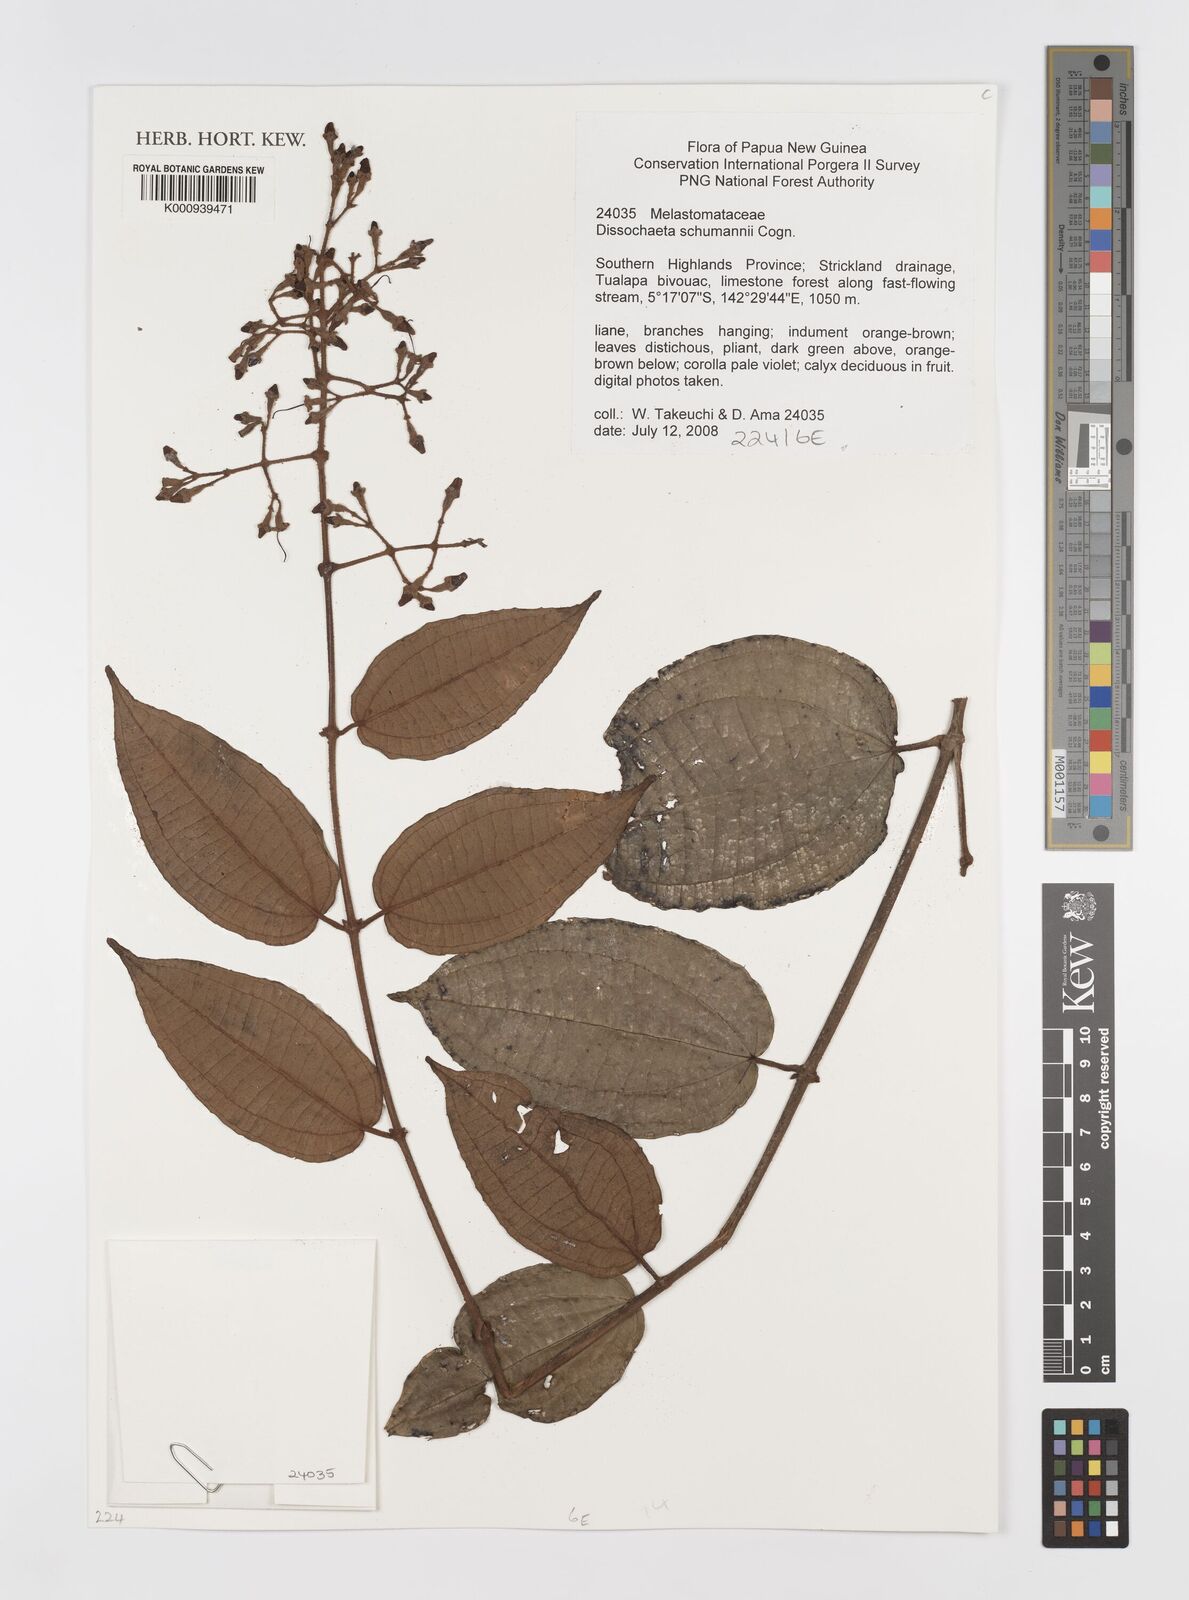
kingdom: Plantae
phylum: Tracheophyta
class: Magnoliopsida
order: Myrtales
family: Melastomataceae
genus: Dissochaeta
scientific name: Dissochaeta schumannii
